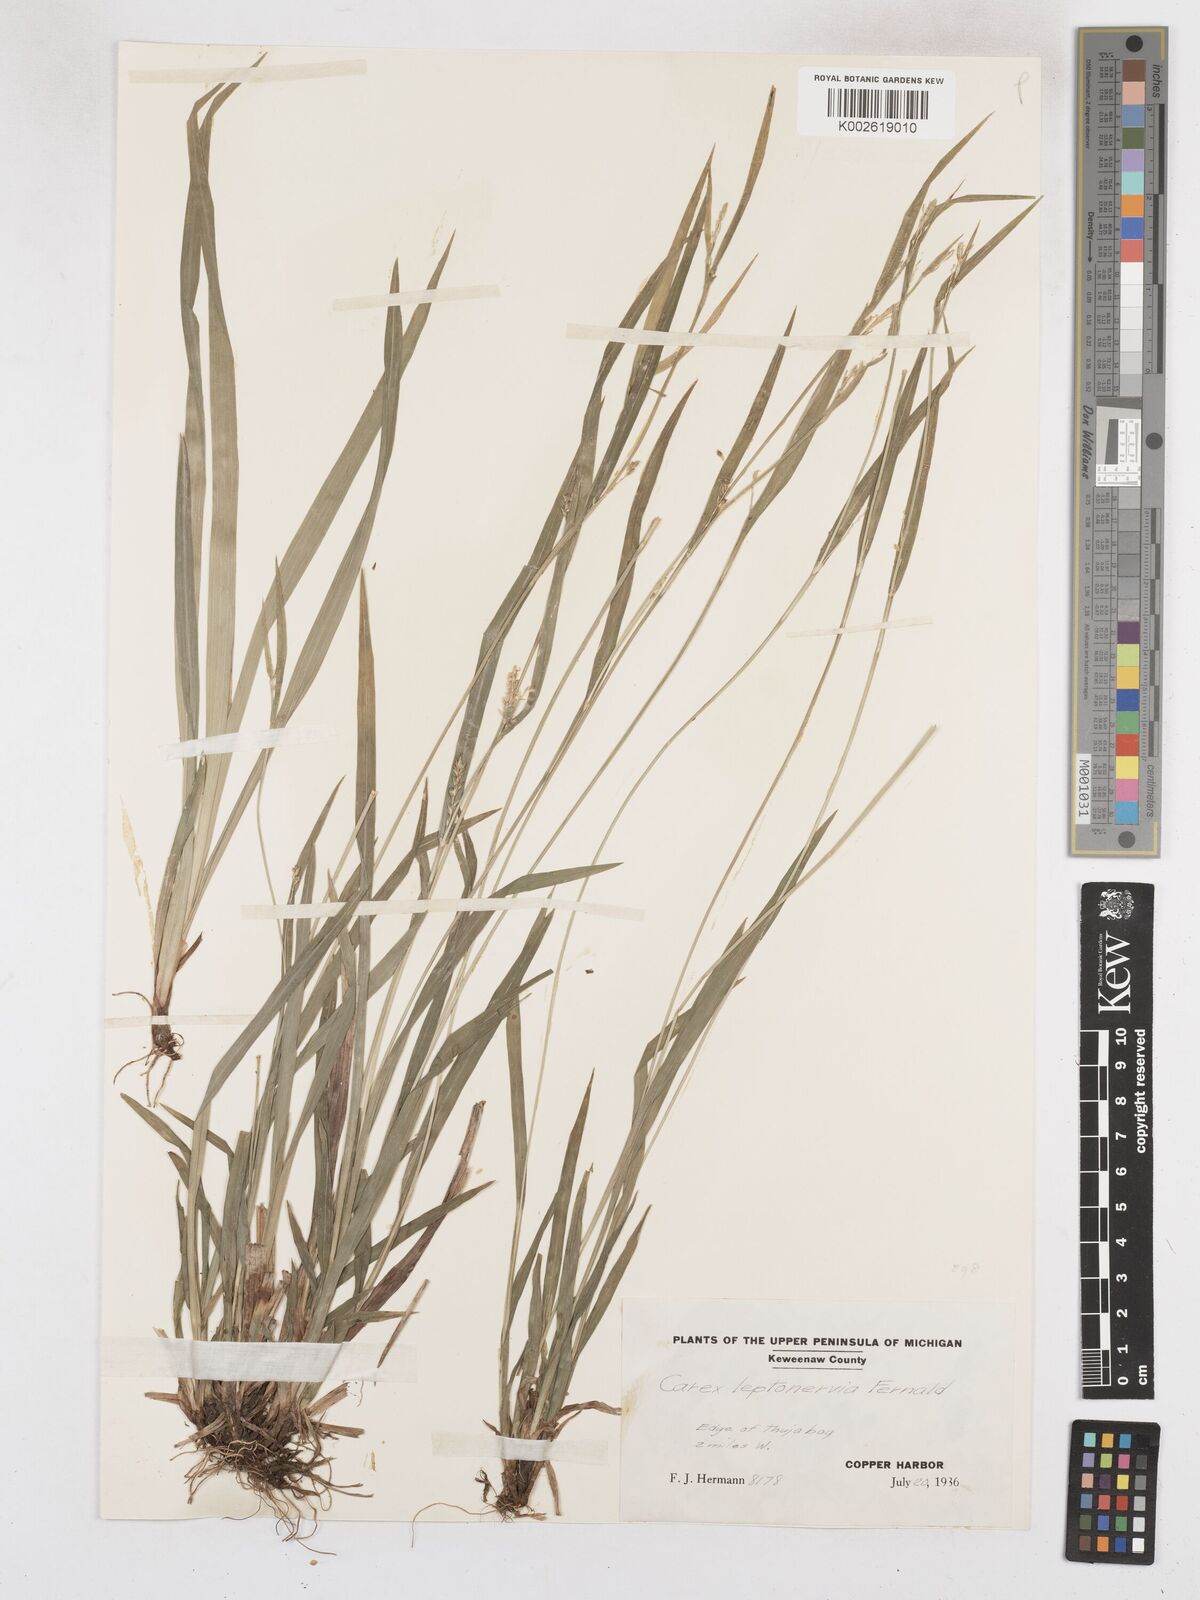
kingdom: Plantae
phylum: Tracheophyta
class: Liliopsida
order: Poales
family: Cyperaceae
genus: Carex
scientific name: Carex leptonervia
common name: Few-nerved wood sedge
